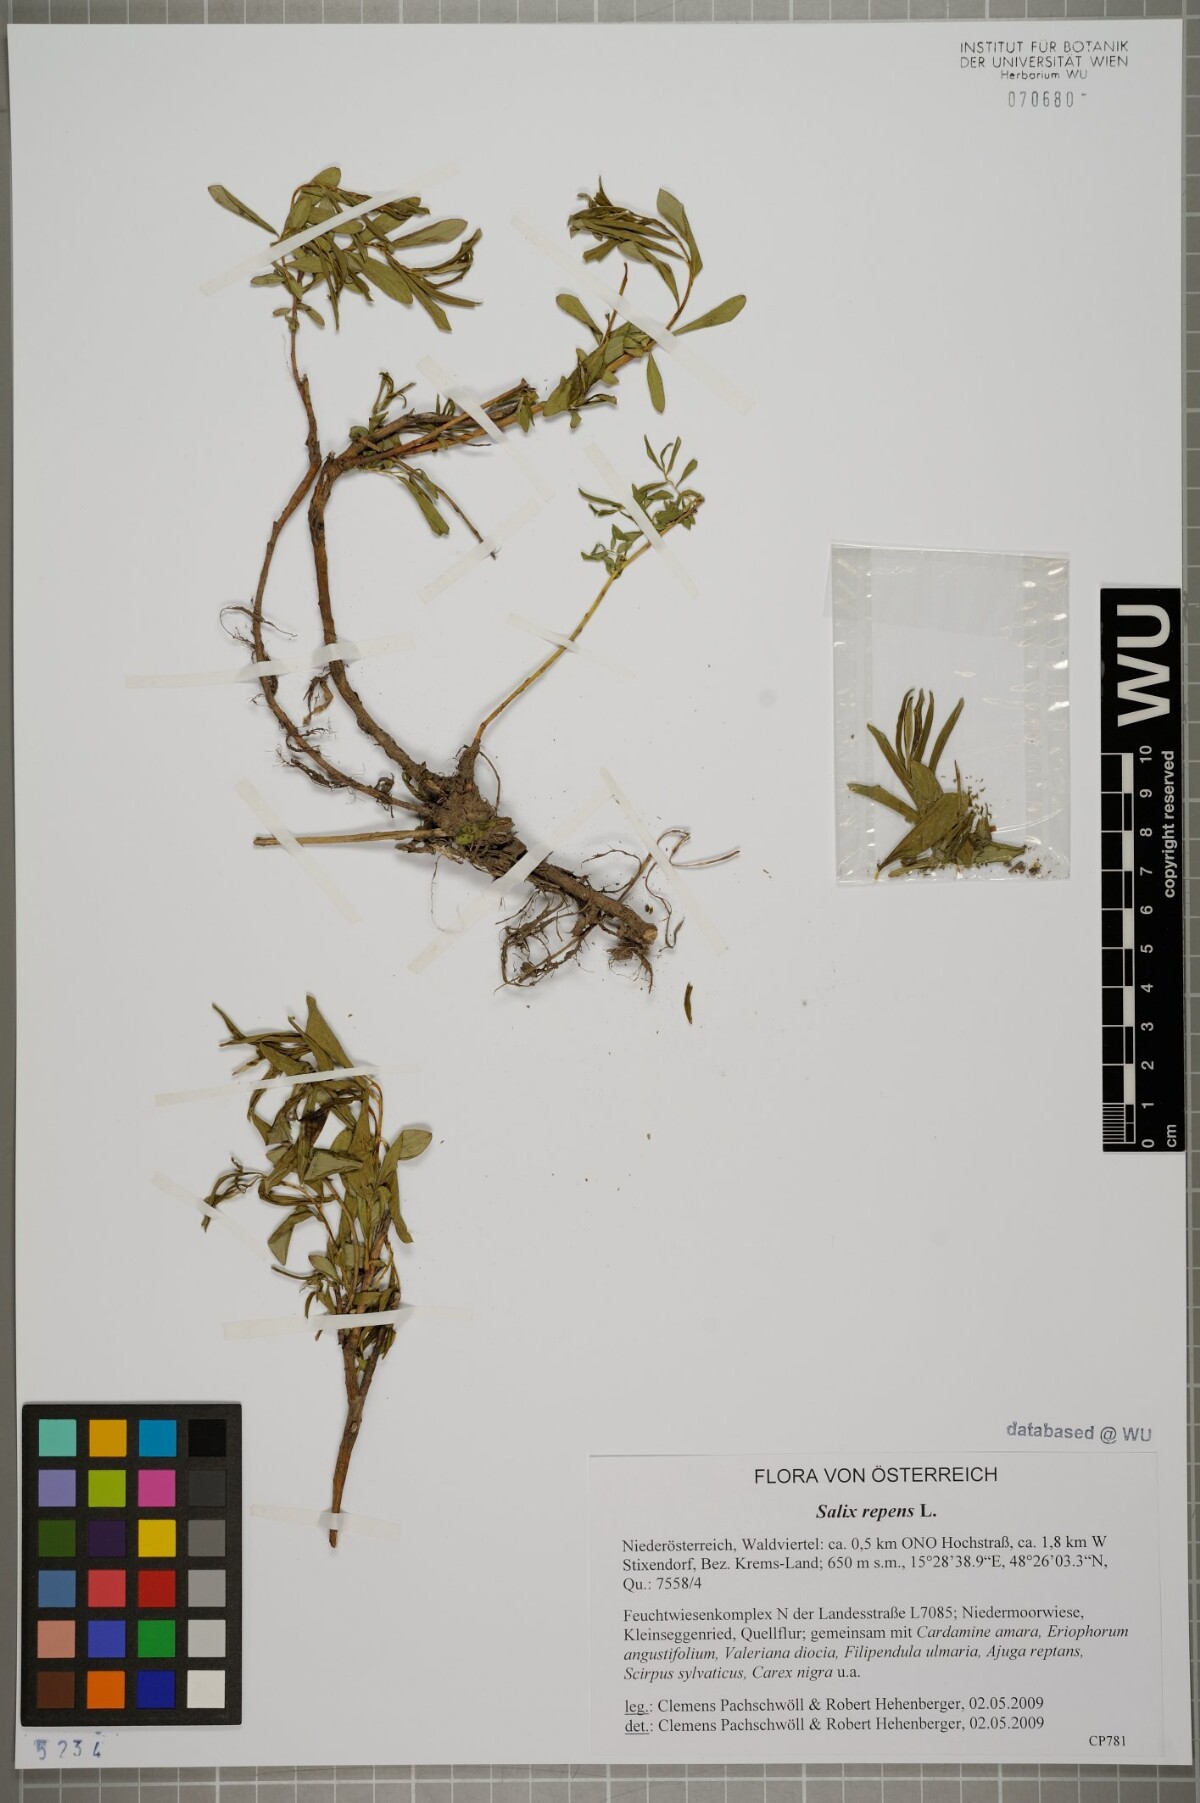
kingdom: Plantae
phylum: Tracheophyta
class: Magnoliopsida
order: Malpighiales
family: Salicaceae
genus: Salix
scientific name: Salix repens
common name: Creeping willow
